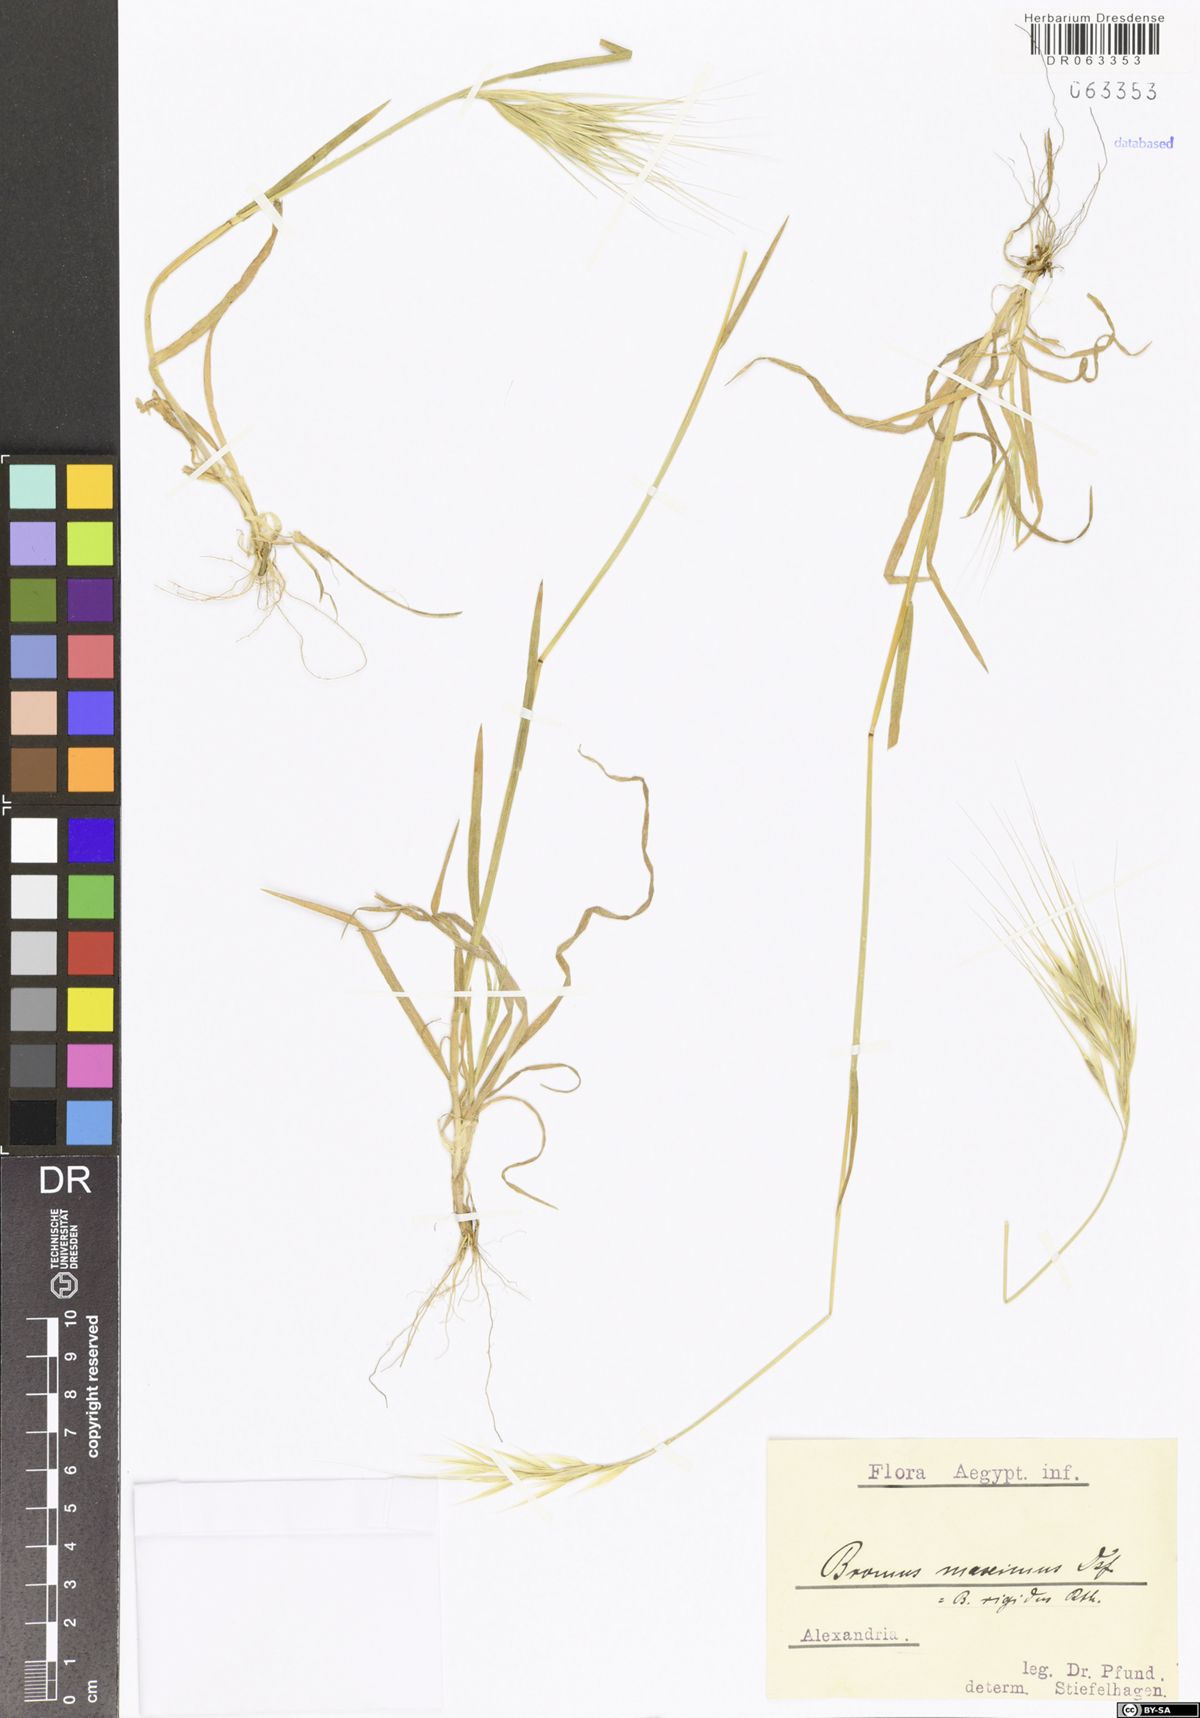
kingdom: Plantae
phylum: Tracheophyta
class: Liliopsida
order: Poales
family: Poaceae
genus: Bromus
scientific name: Bromus rigidus
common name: Ripgut brome
